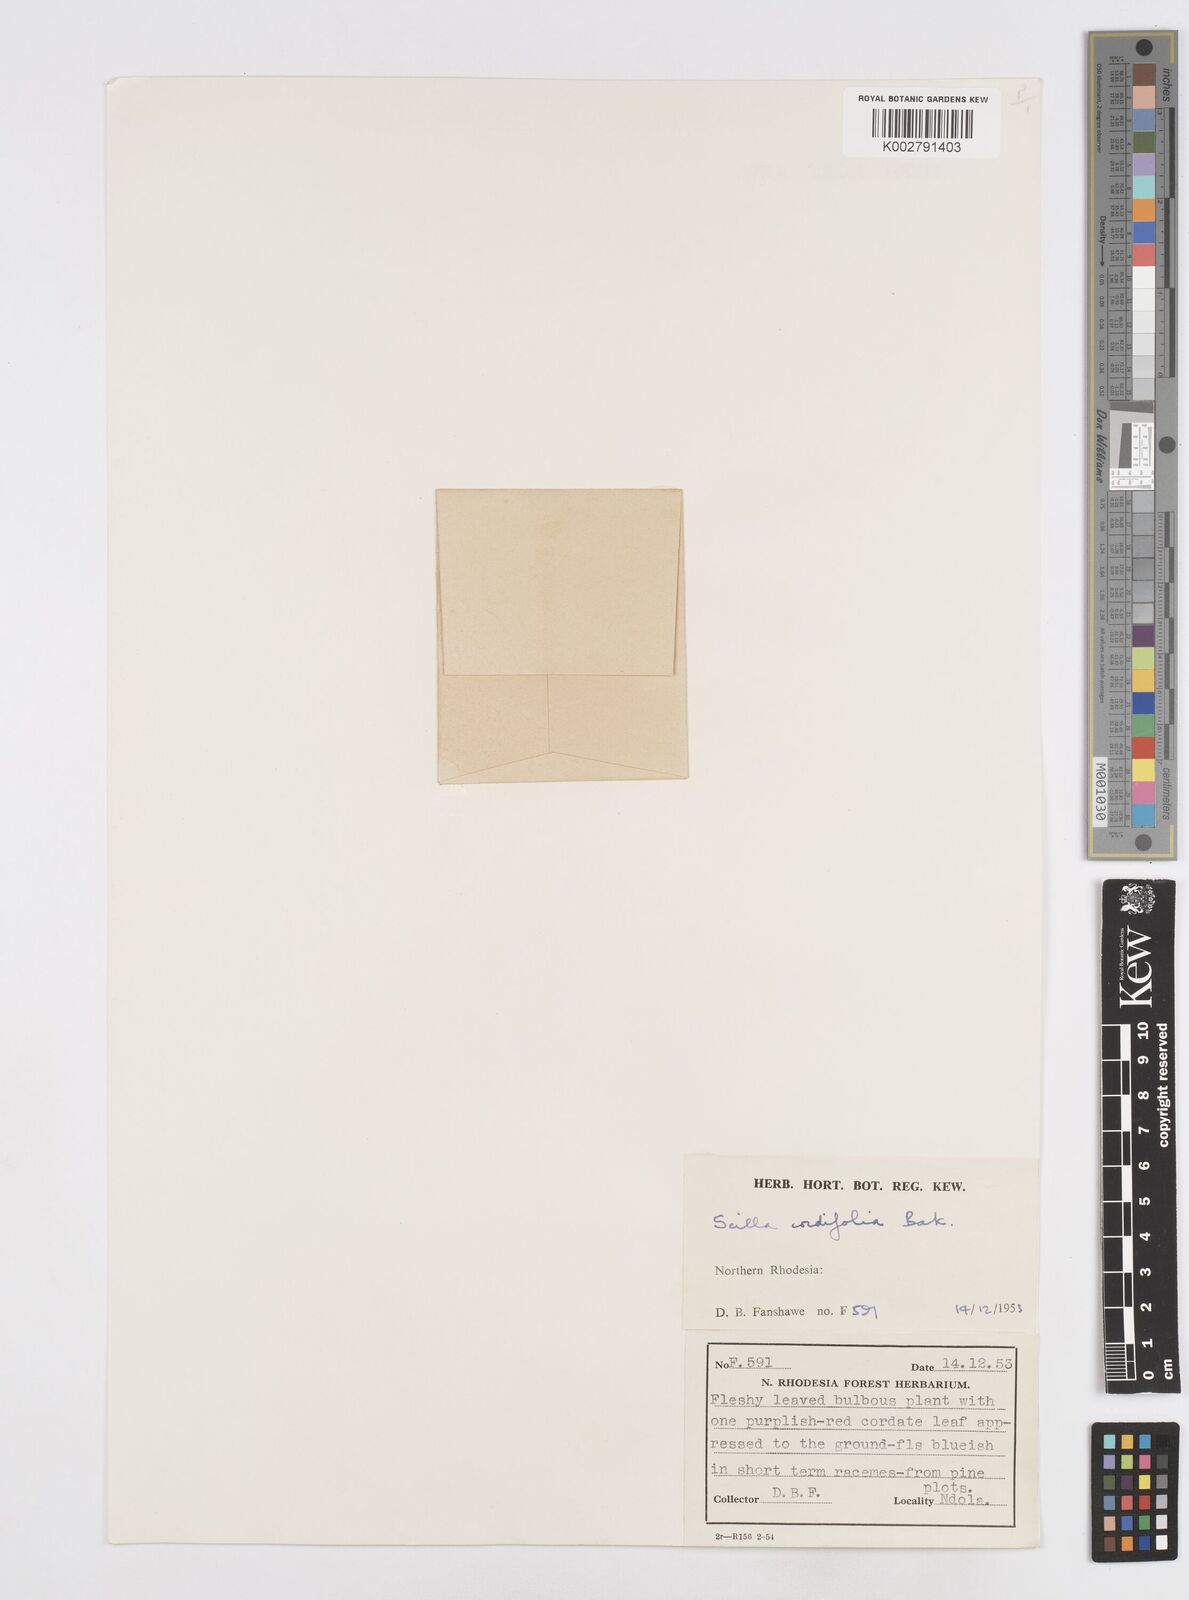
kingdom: Plantae
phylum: Tracheophyta
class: Liliopsida
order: Asparagales
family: Asparagaceae
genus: Ledebouria
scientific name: Ledebouria cordifolia
